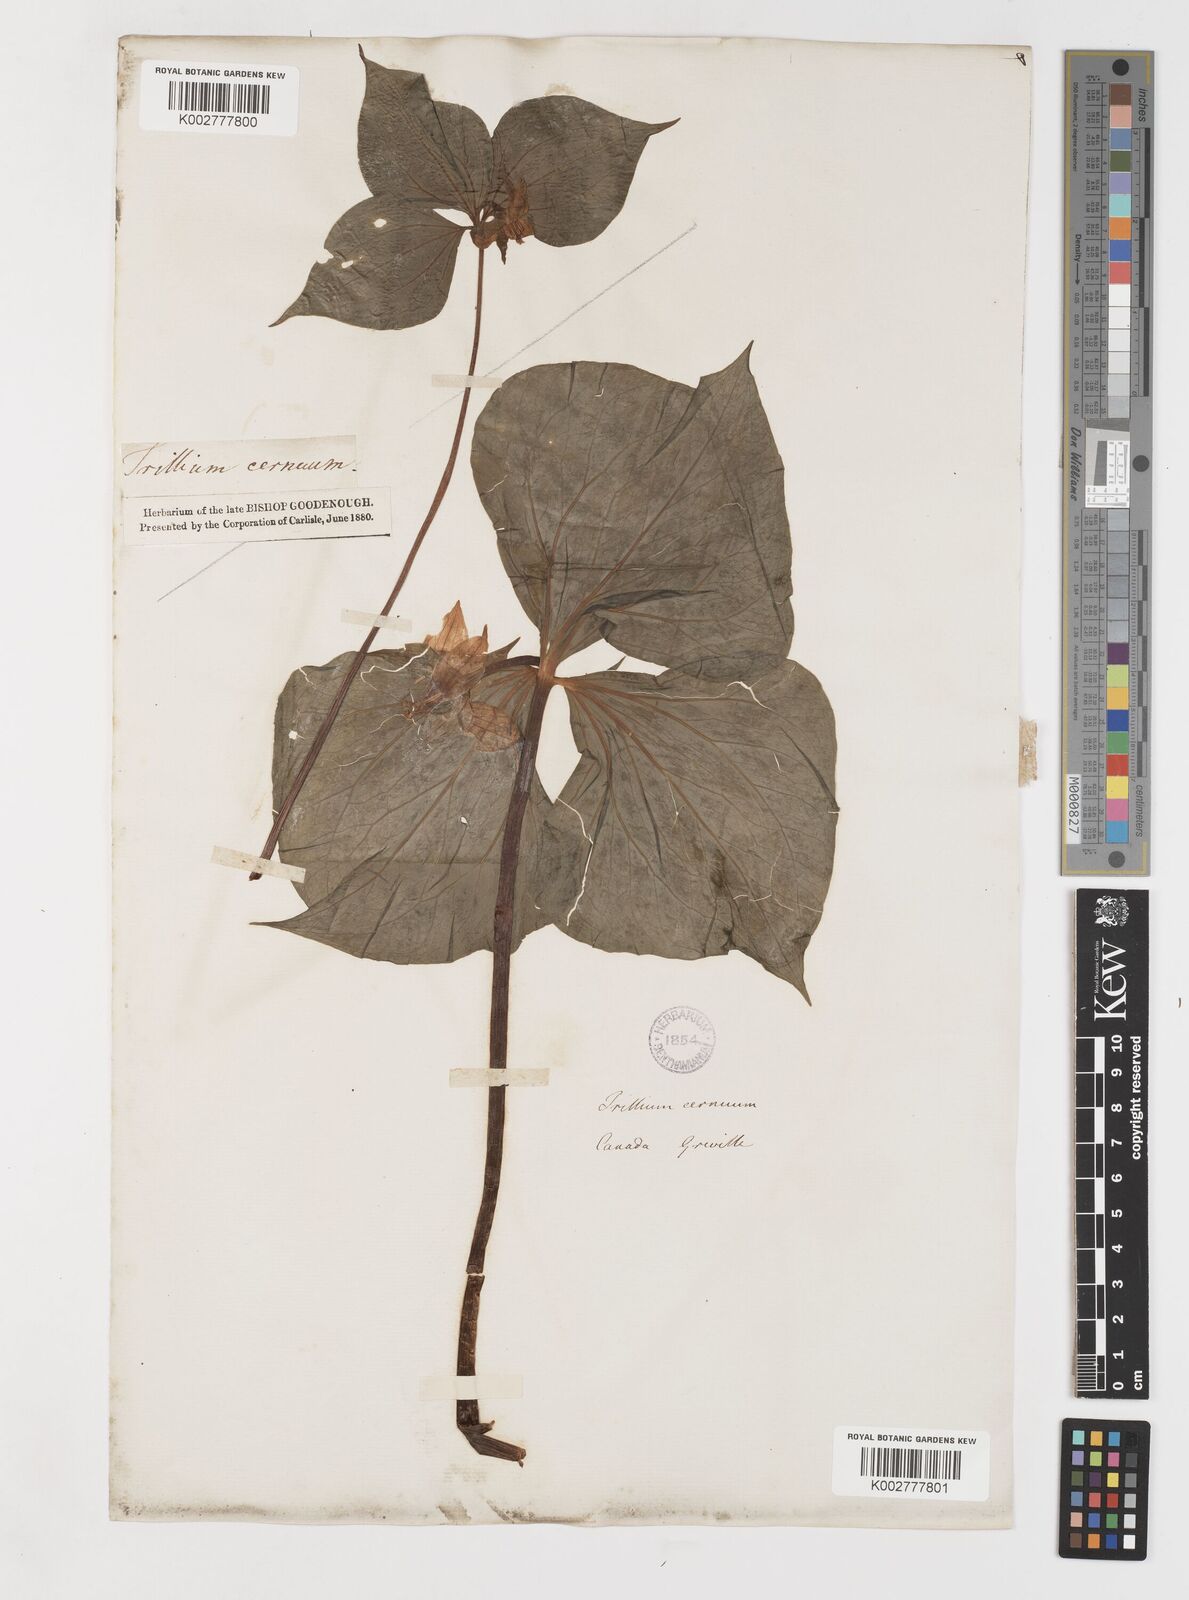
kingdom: Plantae
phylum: Tracheophyta
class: Liliopsida
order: Liliales
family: Melanthiaceae
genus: Trillium
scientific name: Trillium cernuum
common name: Nodding trillium
